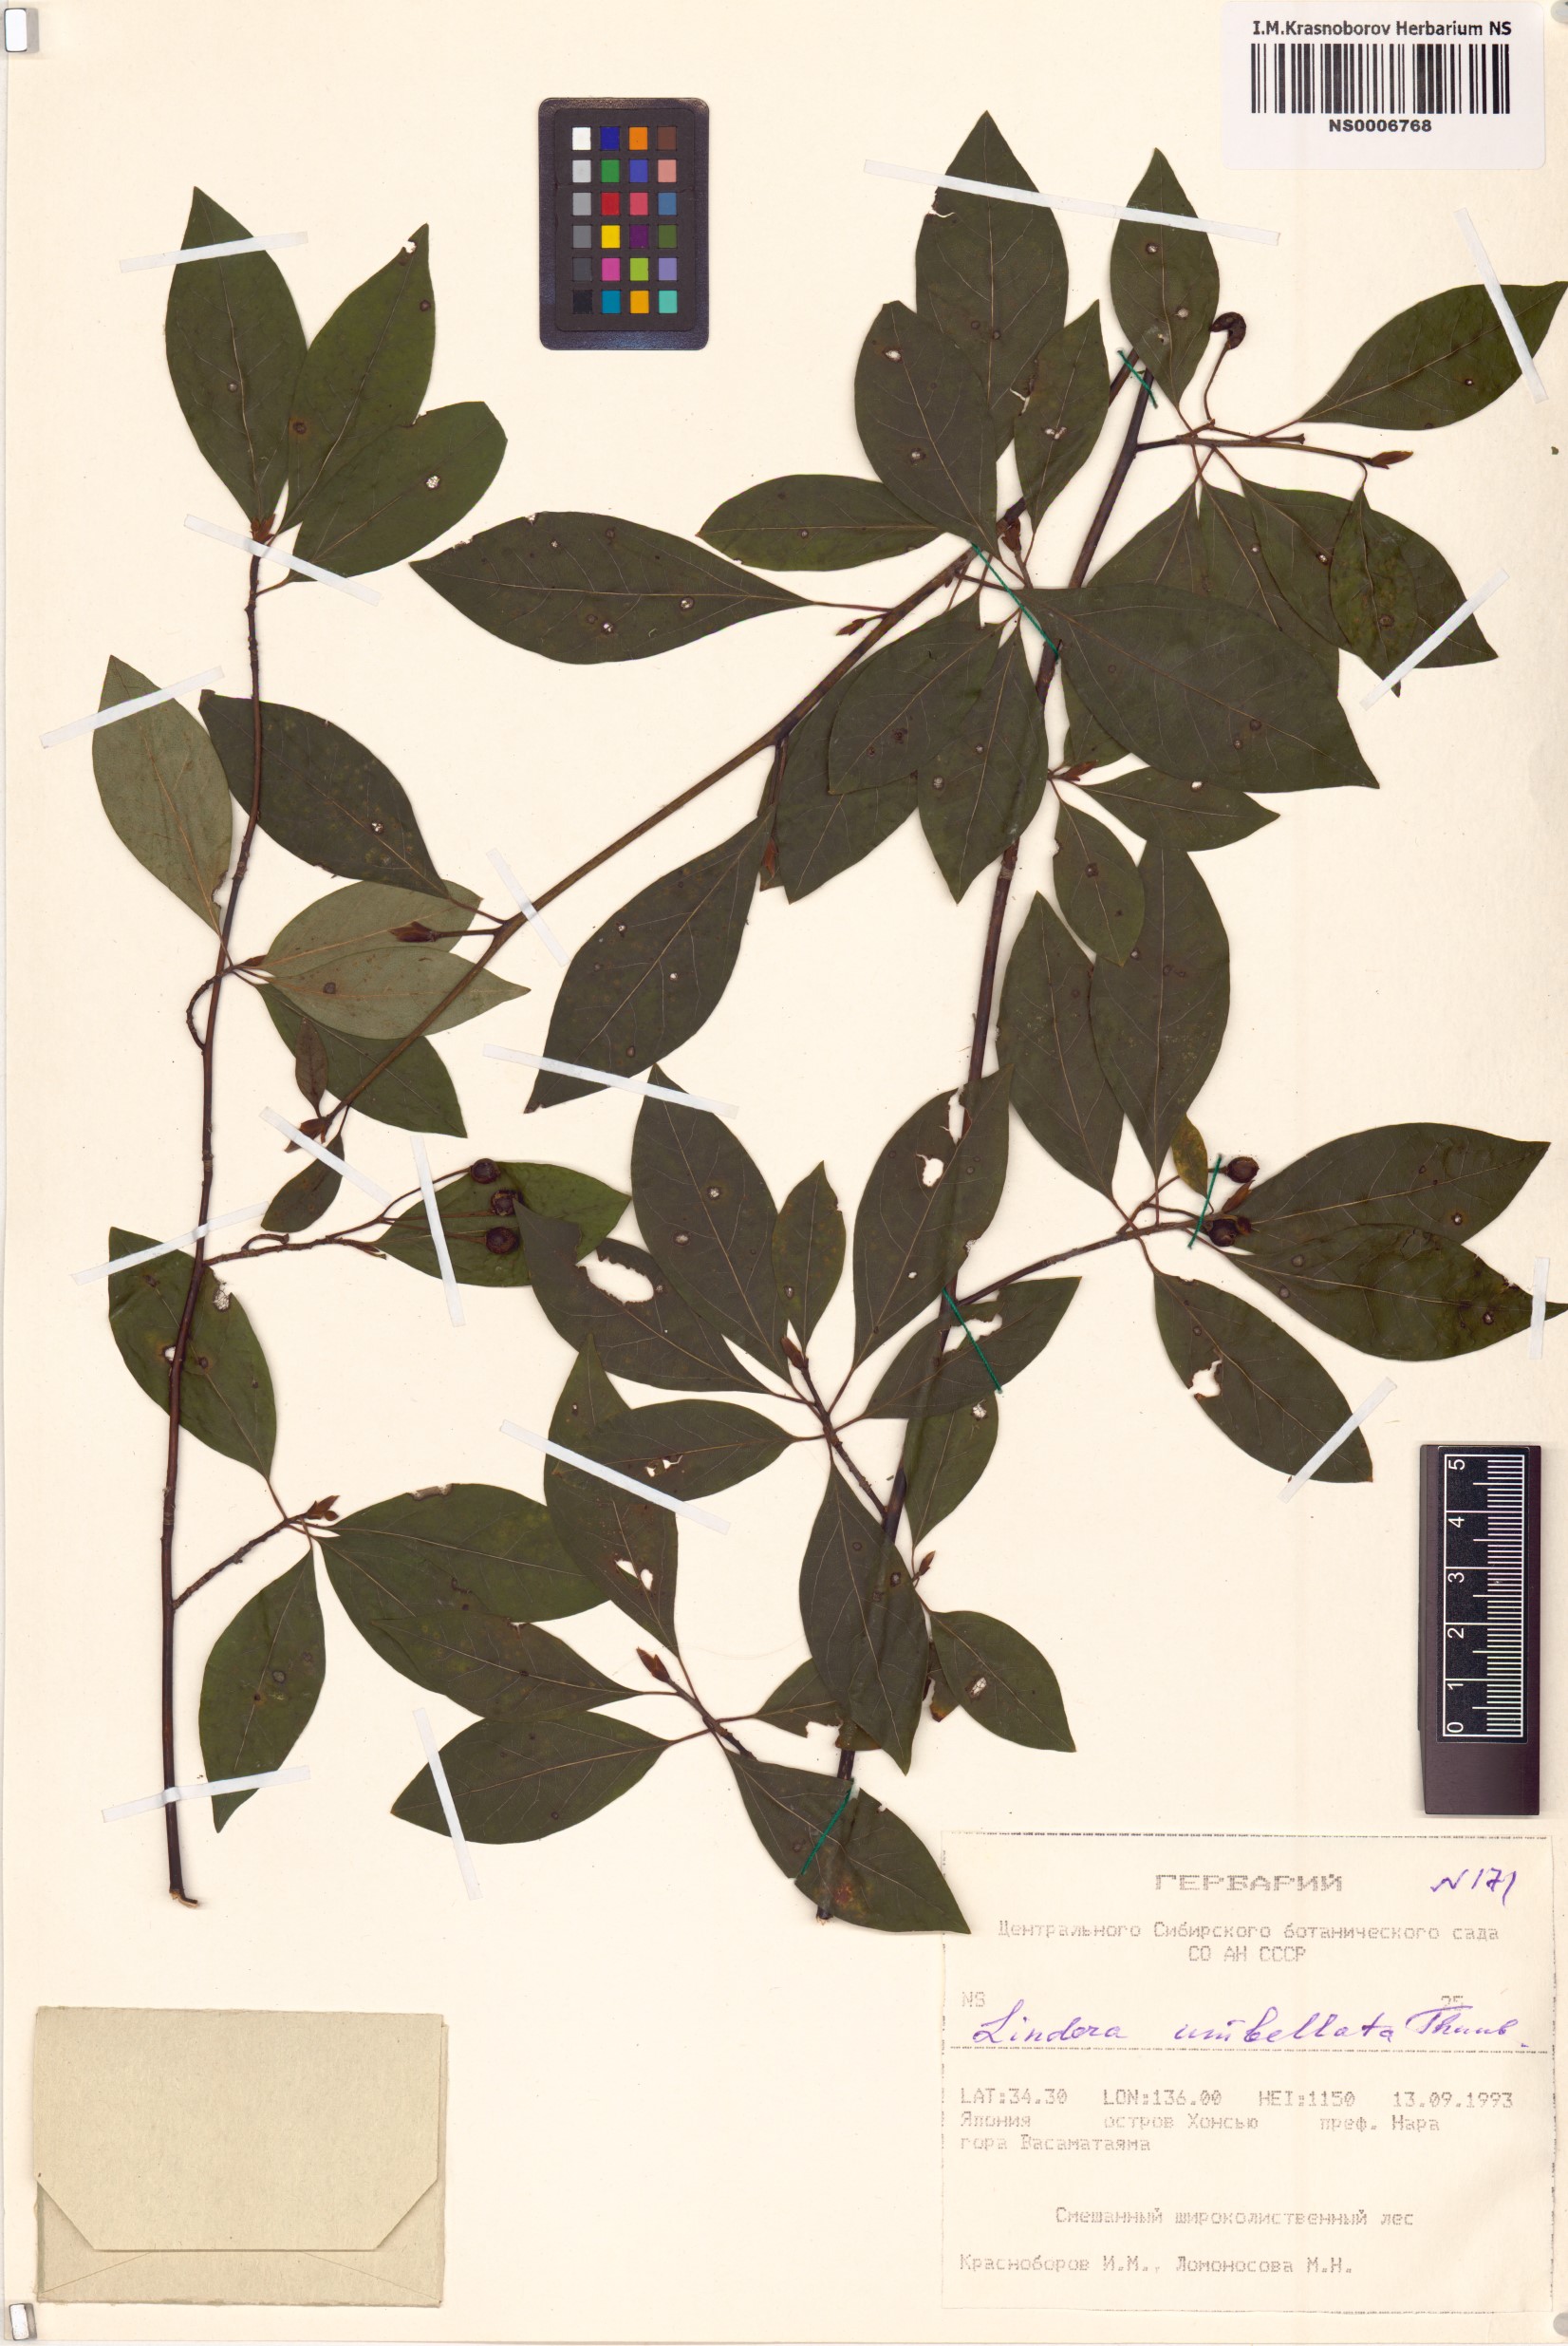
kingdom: Plantae
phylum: Tracheophyta
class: Magnoliopsida
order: Laurales
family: Lauraceae
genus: Lindera
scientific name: Lindera umbellata
